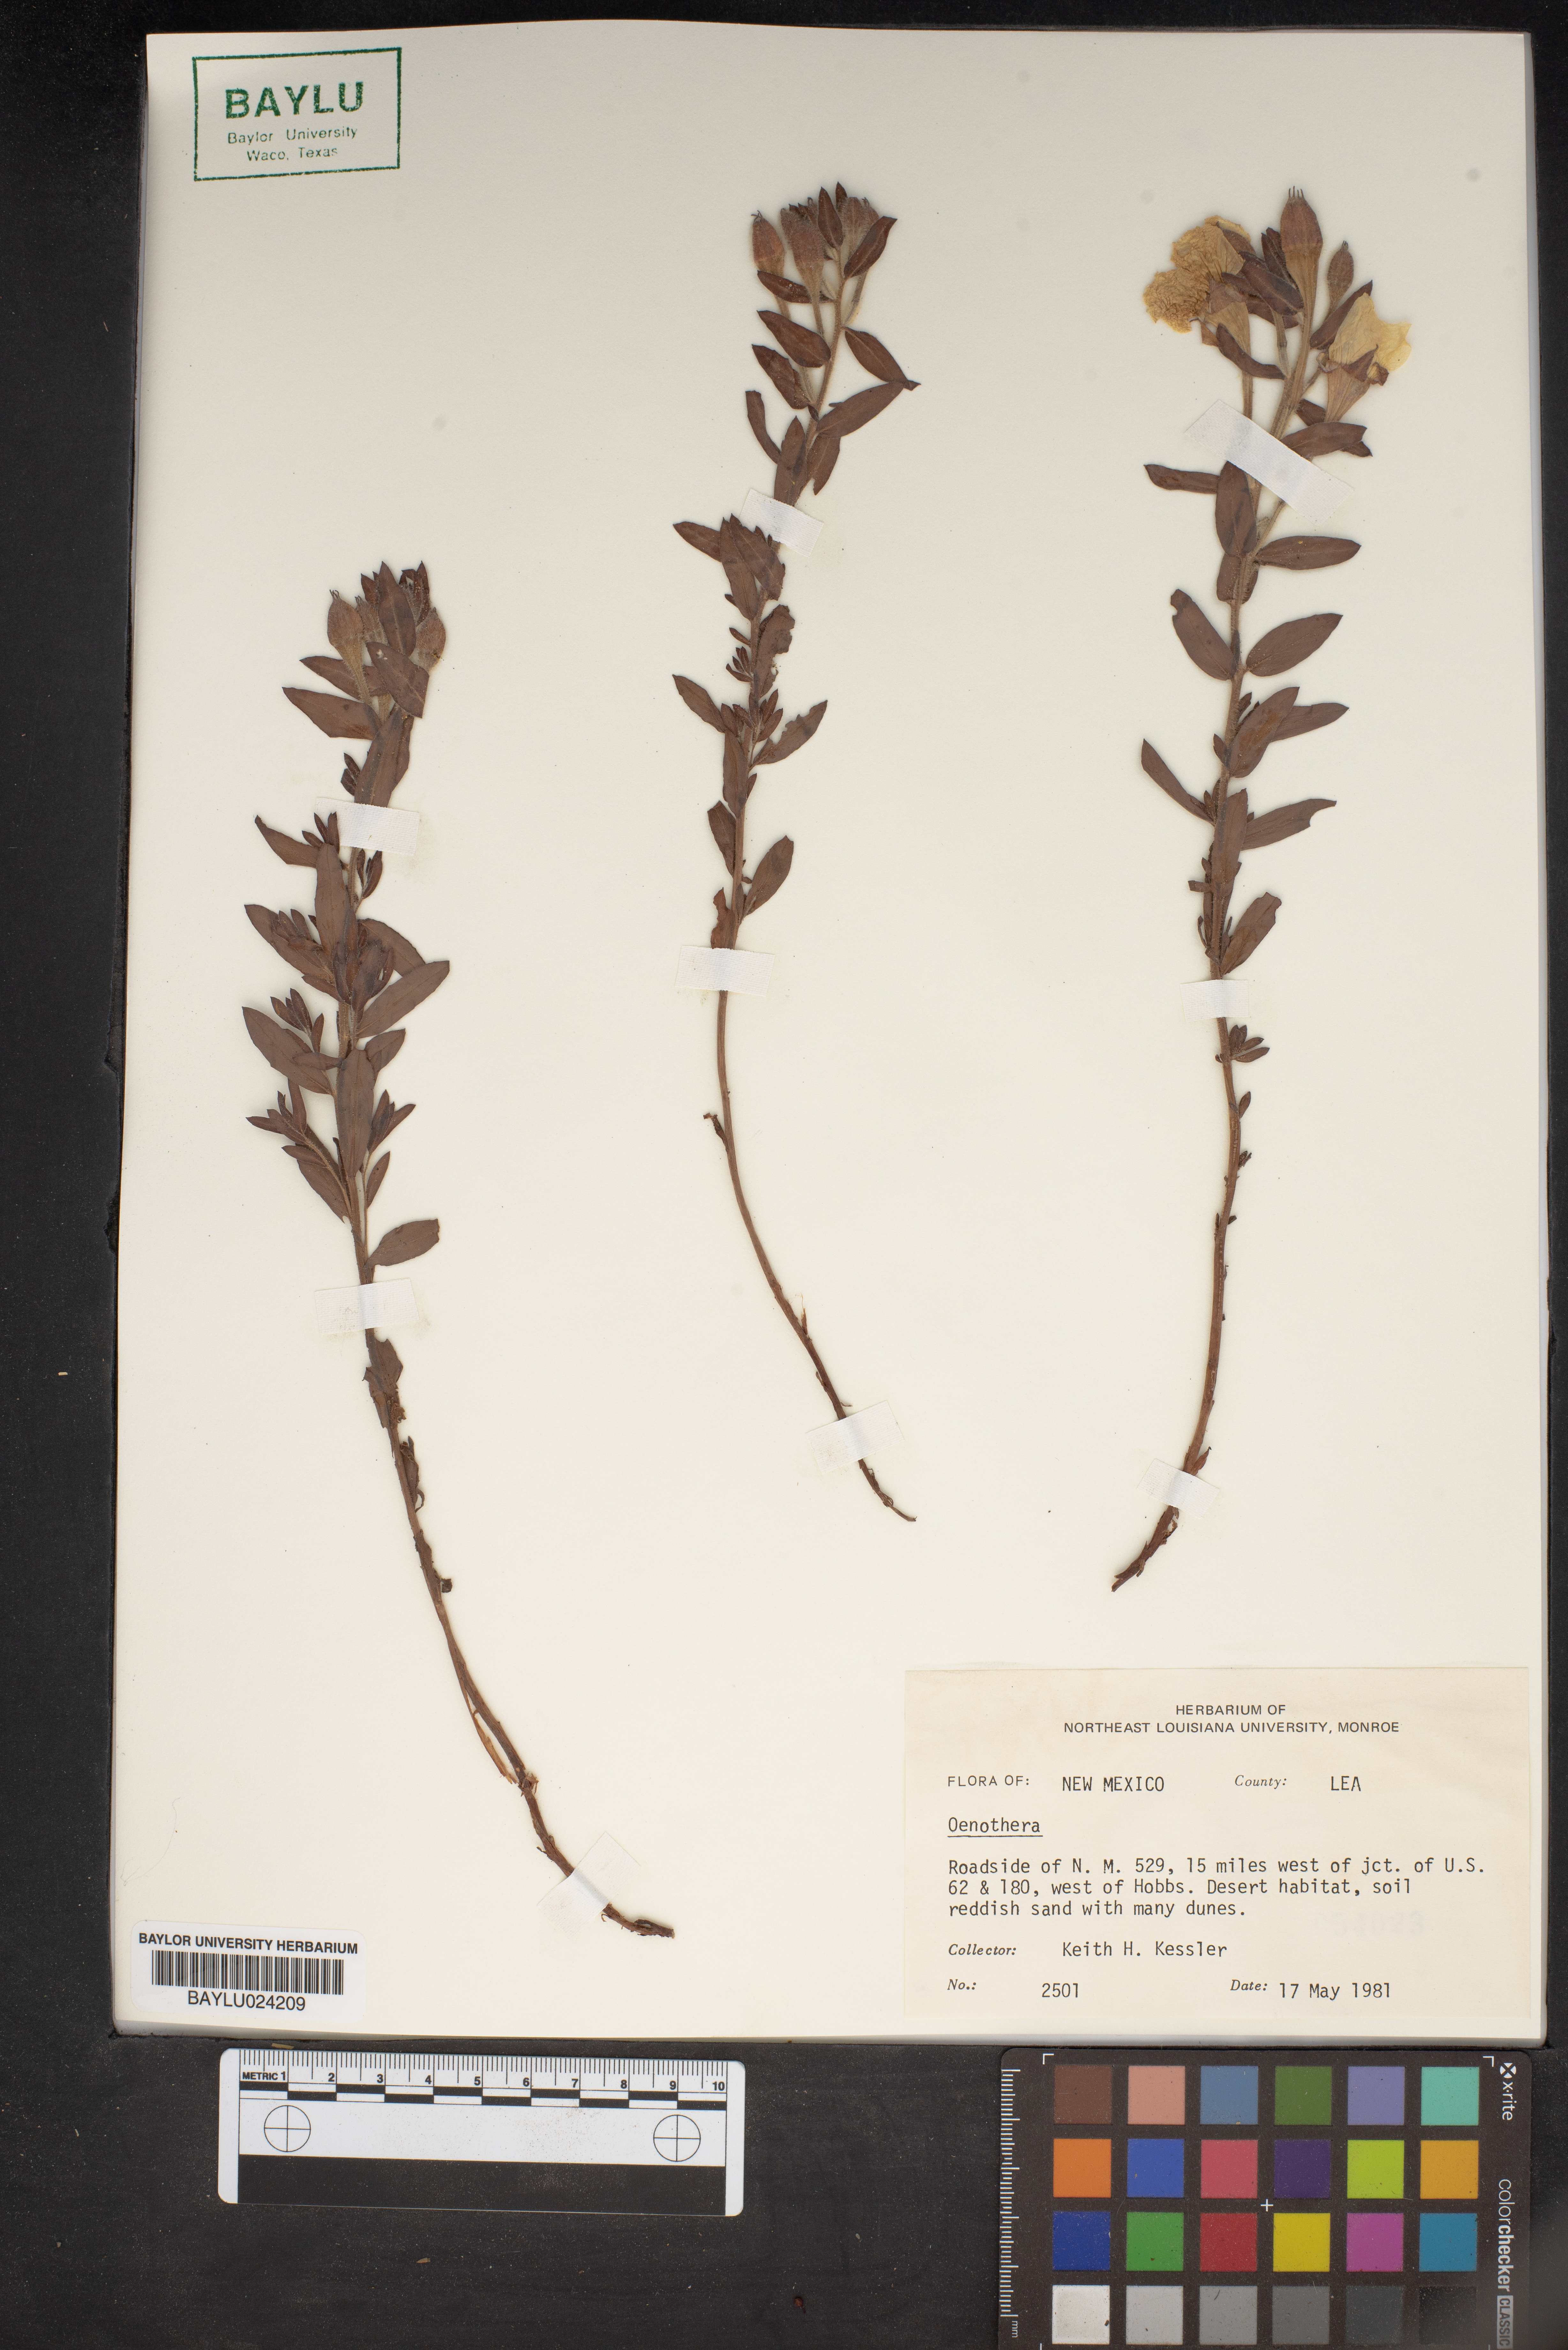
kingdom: Plantae
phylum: Tracheophyta
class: Magnoliopsida
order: Myrtales
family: Onagraceae
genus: Oenothera
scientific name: Oenothera
